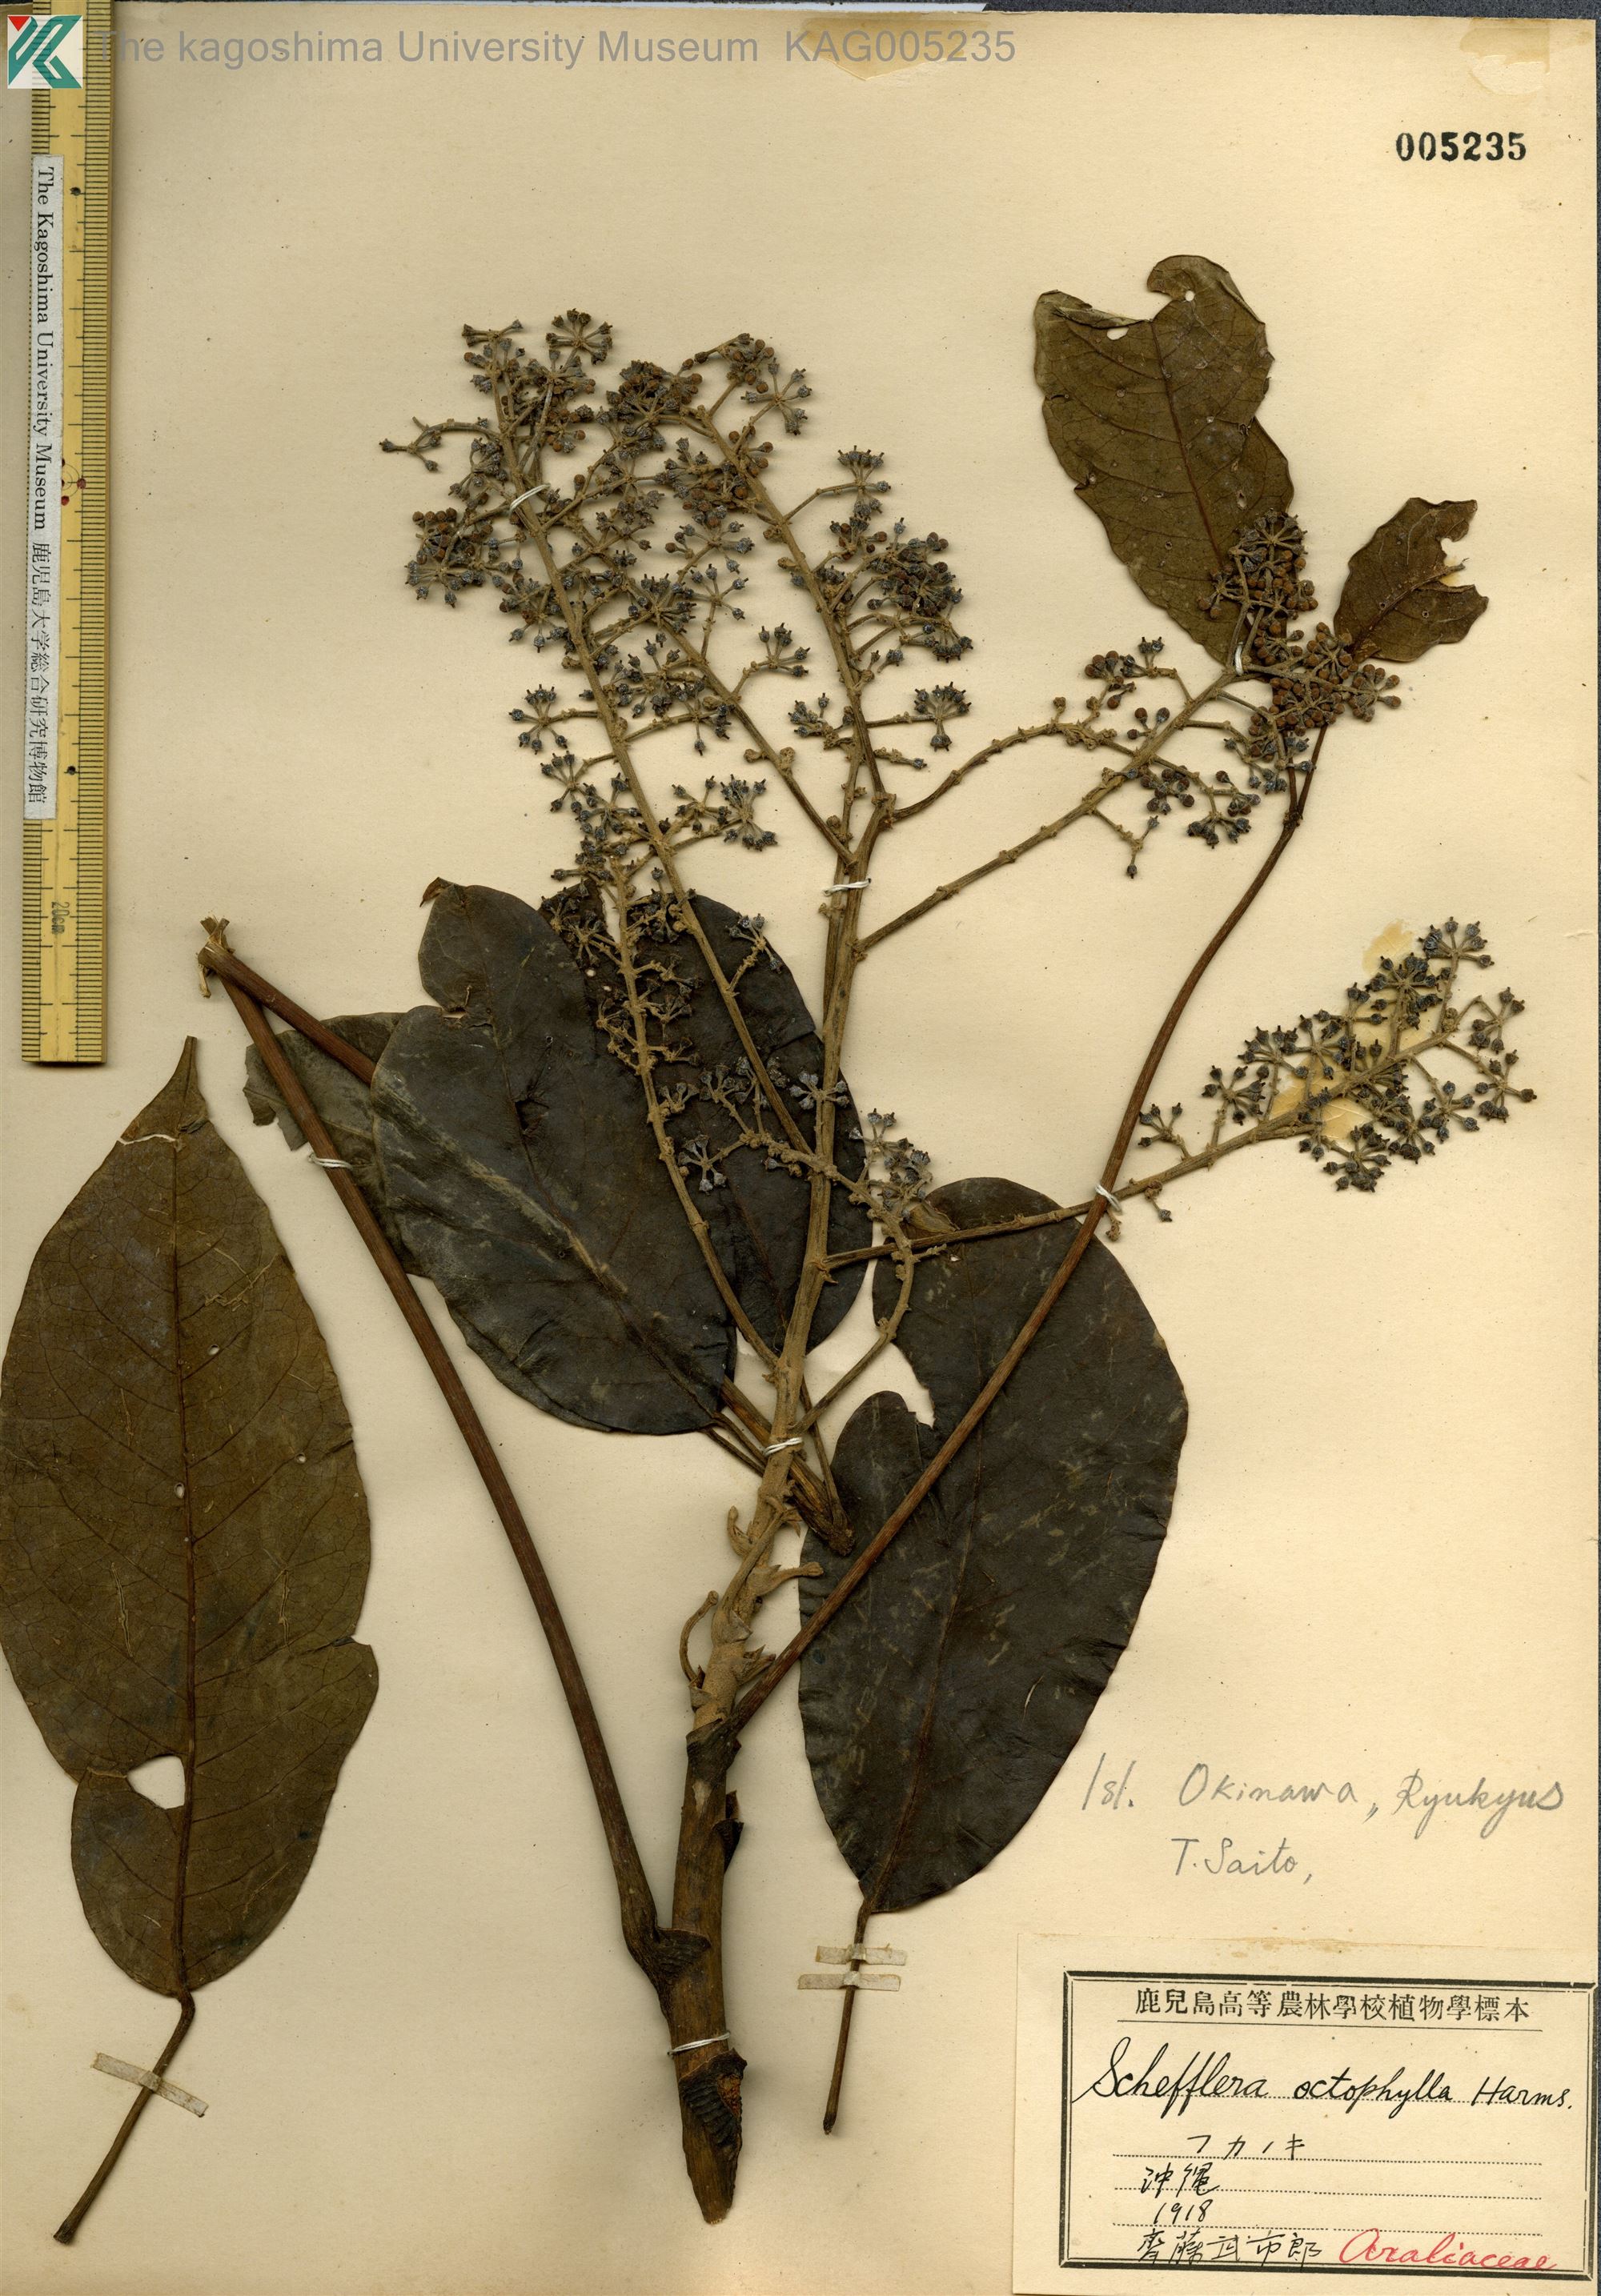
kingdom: Plantae
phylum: Tracheophyta
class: Magnoliopsida
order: Apiales
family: Araliaceae
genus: Heptapleurum
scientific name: Heptapleurum heptaphyllum
